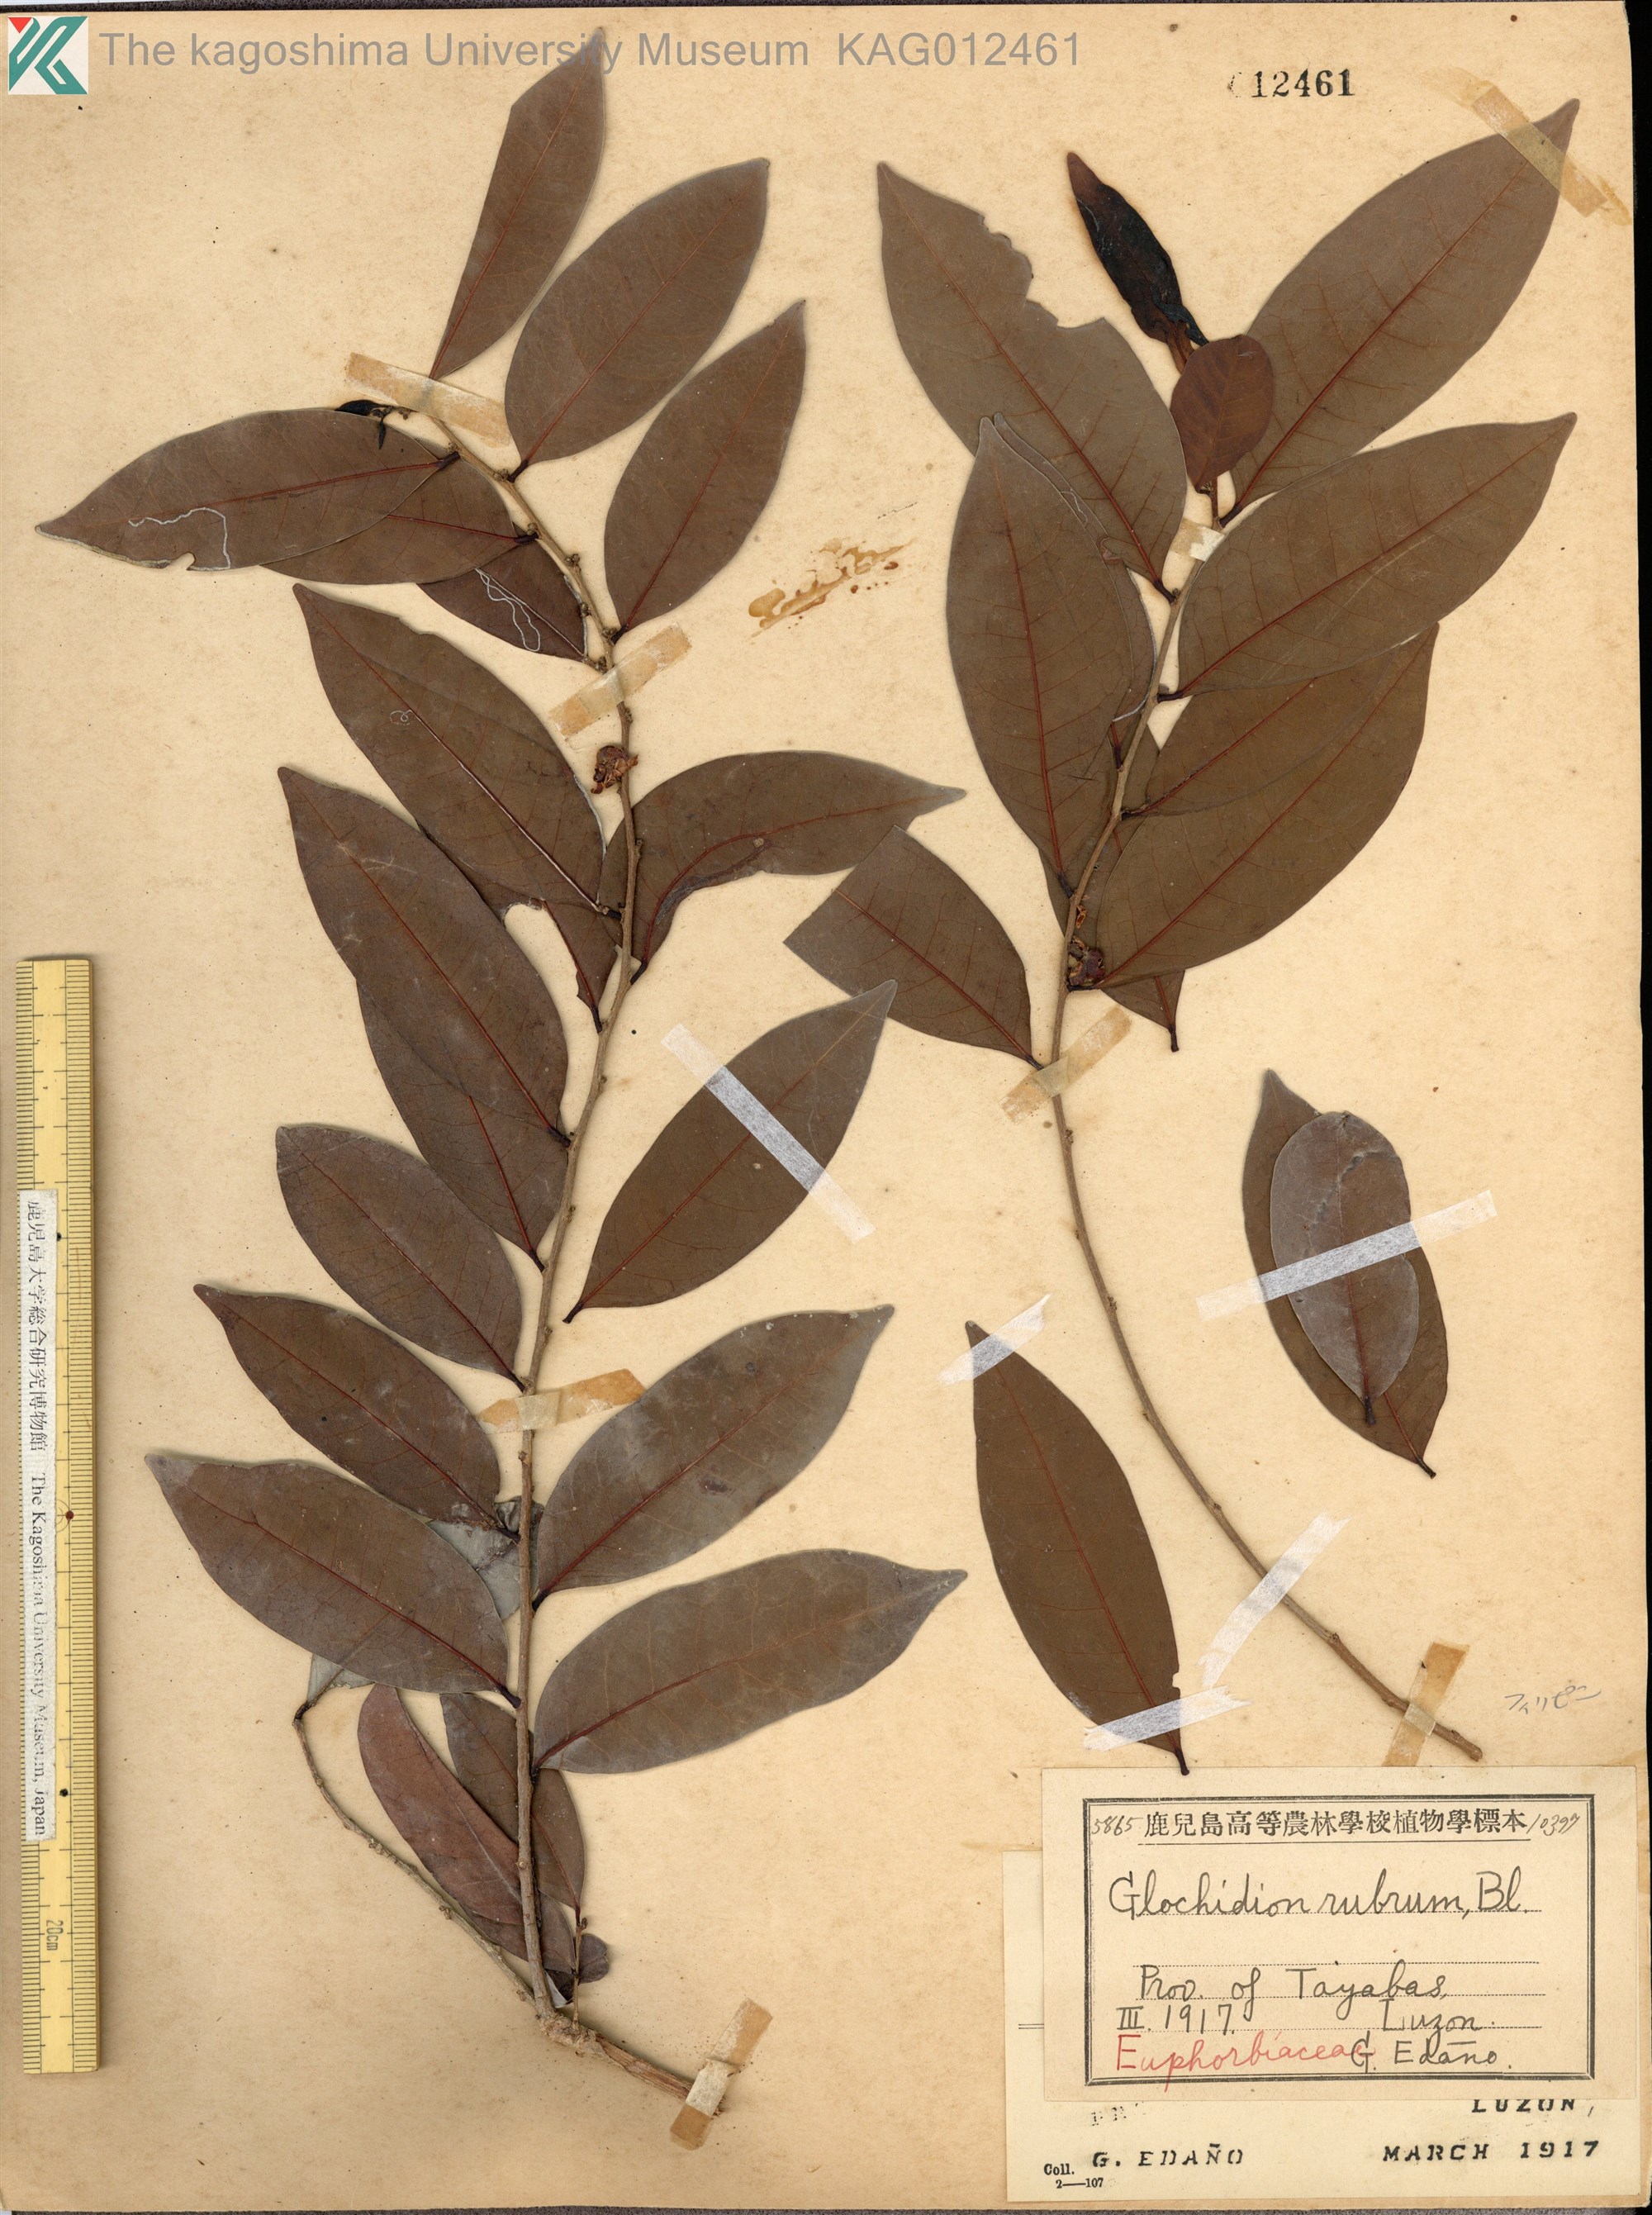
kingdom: Plantae
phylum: Tracheophyta
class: Magnoliopsida
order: Malpighiales
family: Phyllanthaceae
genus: Glochidion
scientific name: Glochidion rubrum
